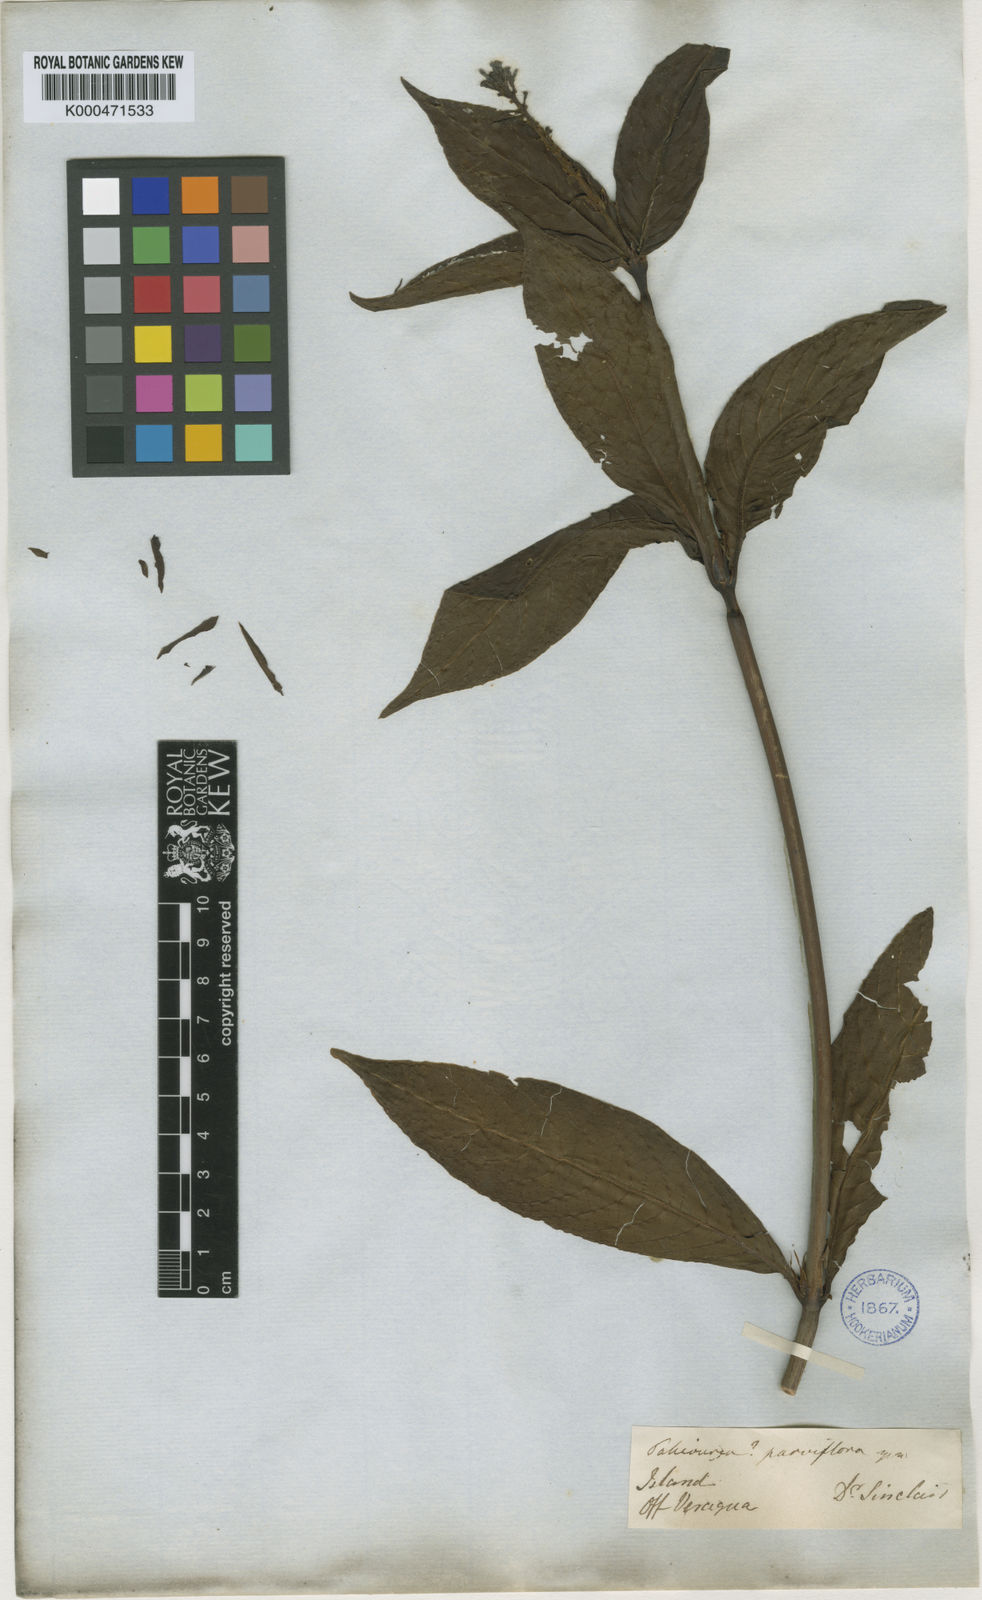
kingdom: Plantae
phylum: Tracheophyta
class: Magnoliopsida
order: Gentianales
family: Rubiaceae
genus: Palicourea
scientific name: Palicourea triphylla
